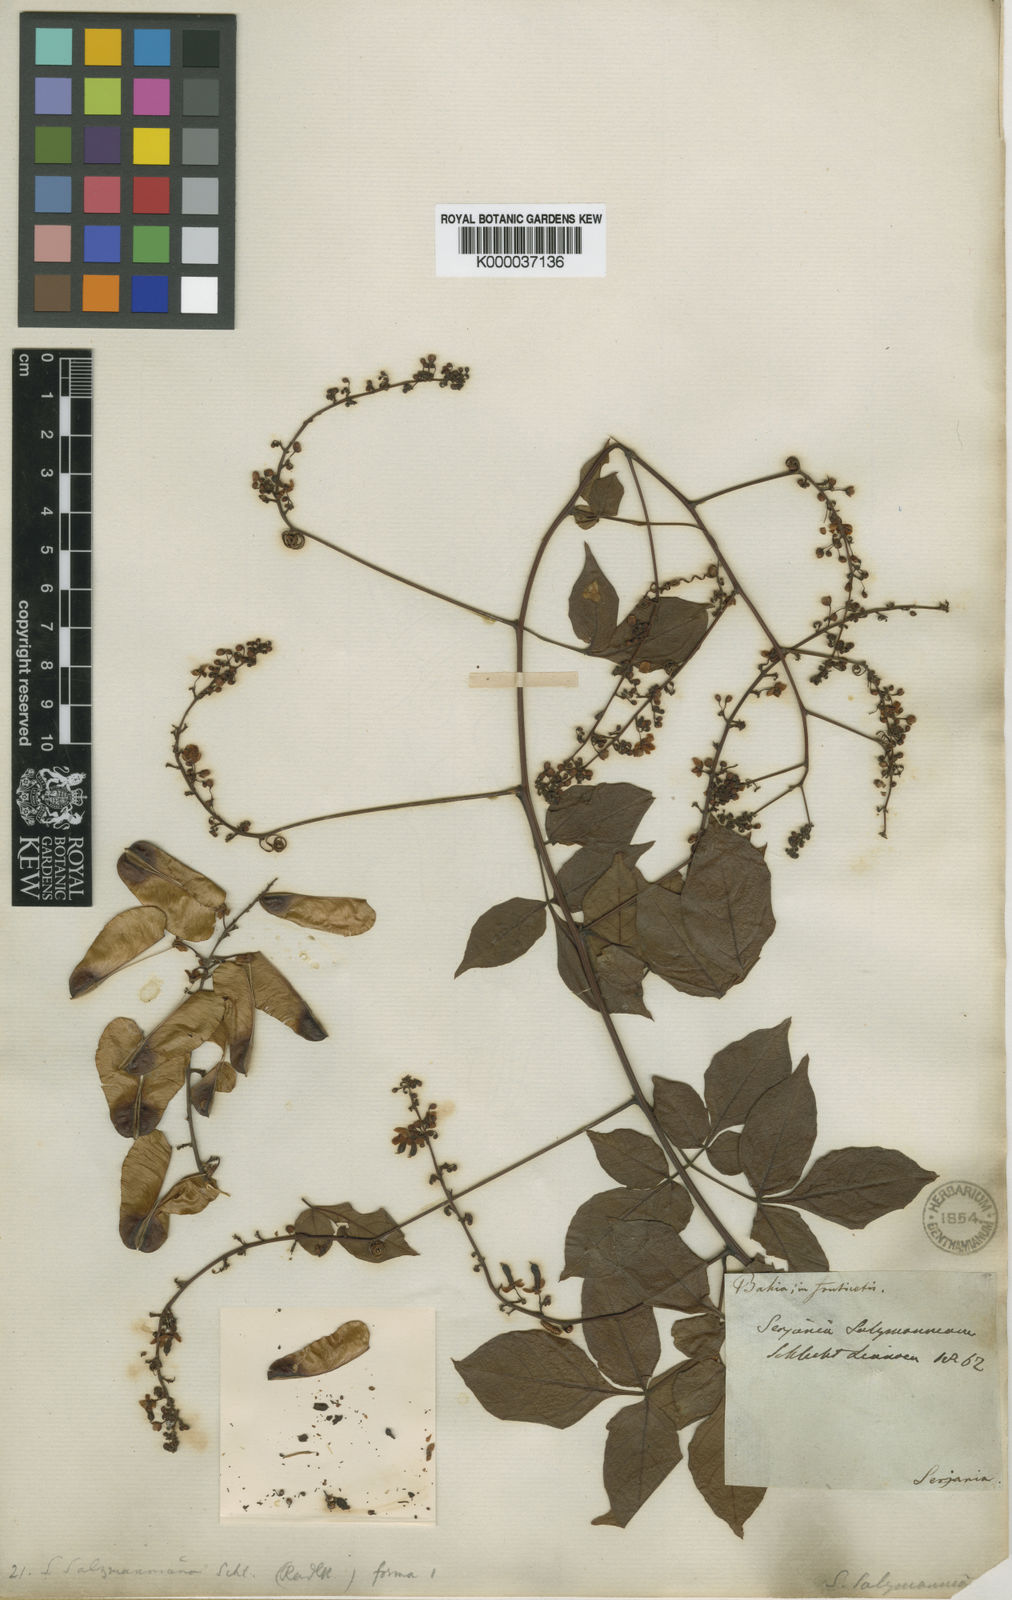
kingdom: Plantae
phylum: Tracheophyta
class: Magnoliopsida
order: Sapindales
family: Sapindaceae
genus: Serjania
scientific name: Serjania salzmanniana
